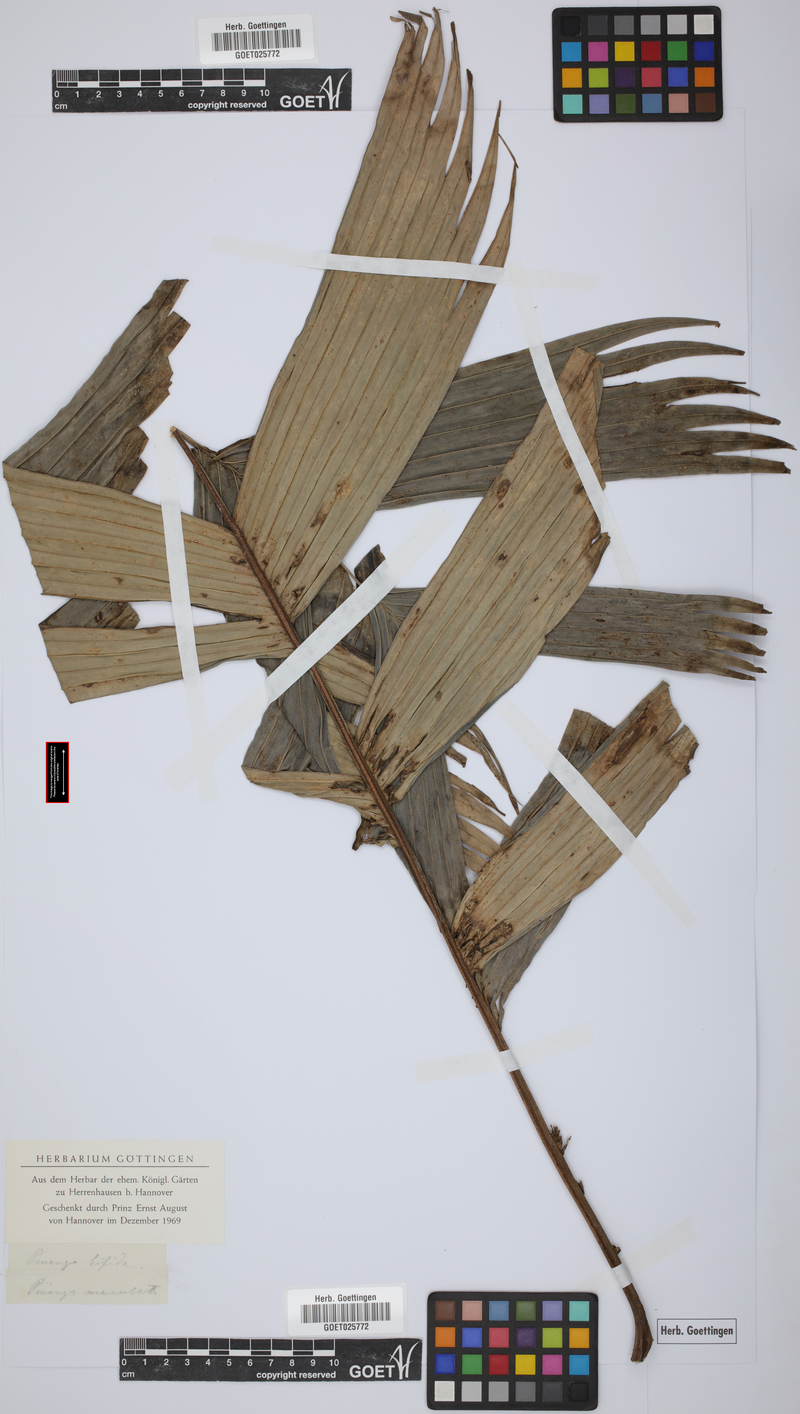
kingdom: Plantae
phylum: Tracheophyta
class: Liliopsida
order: Arecales
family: Arecaceae
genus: Pinanga
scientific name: Pinanga disticha
